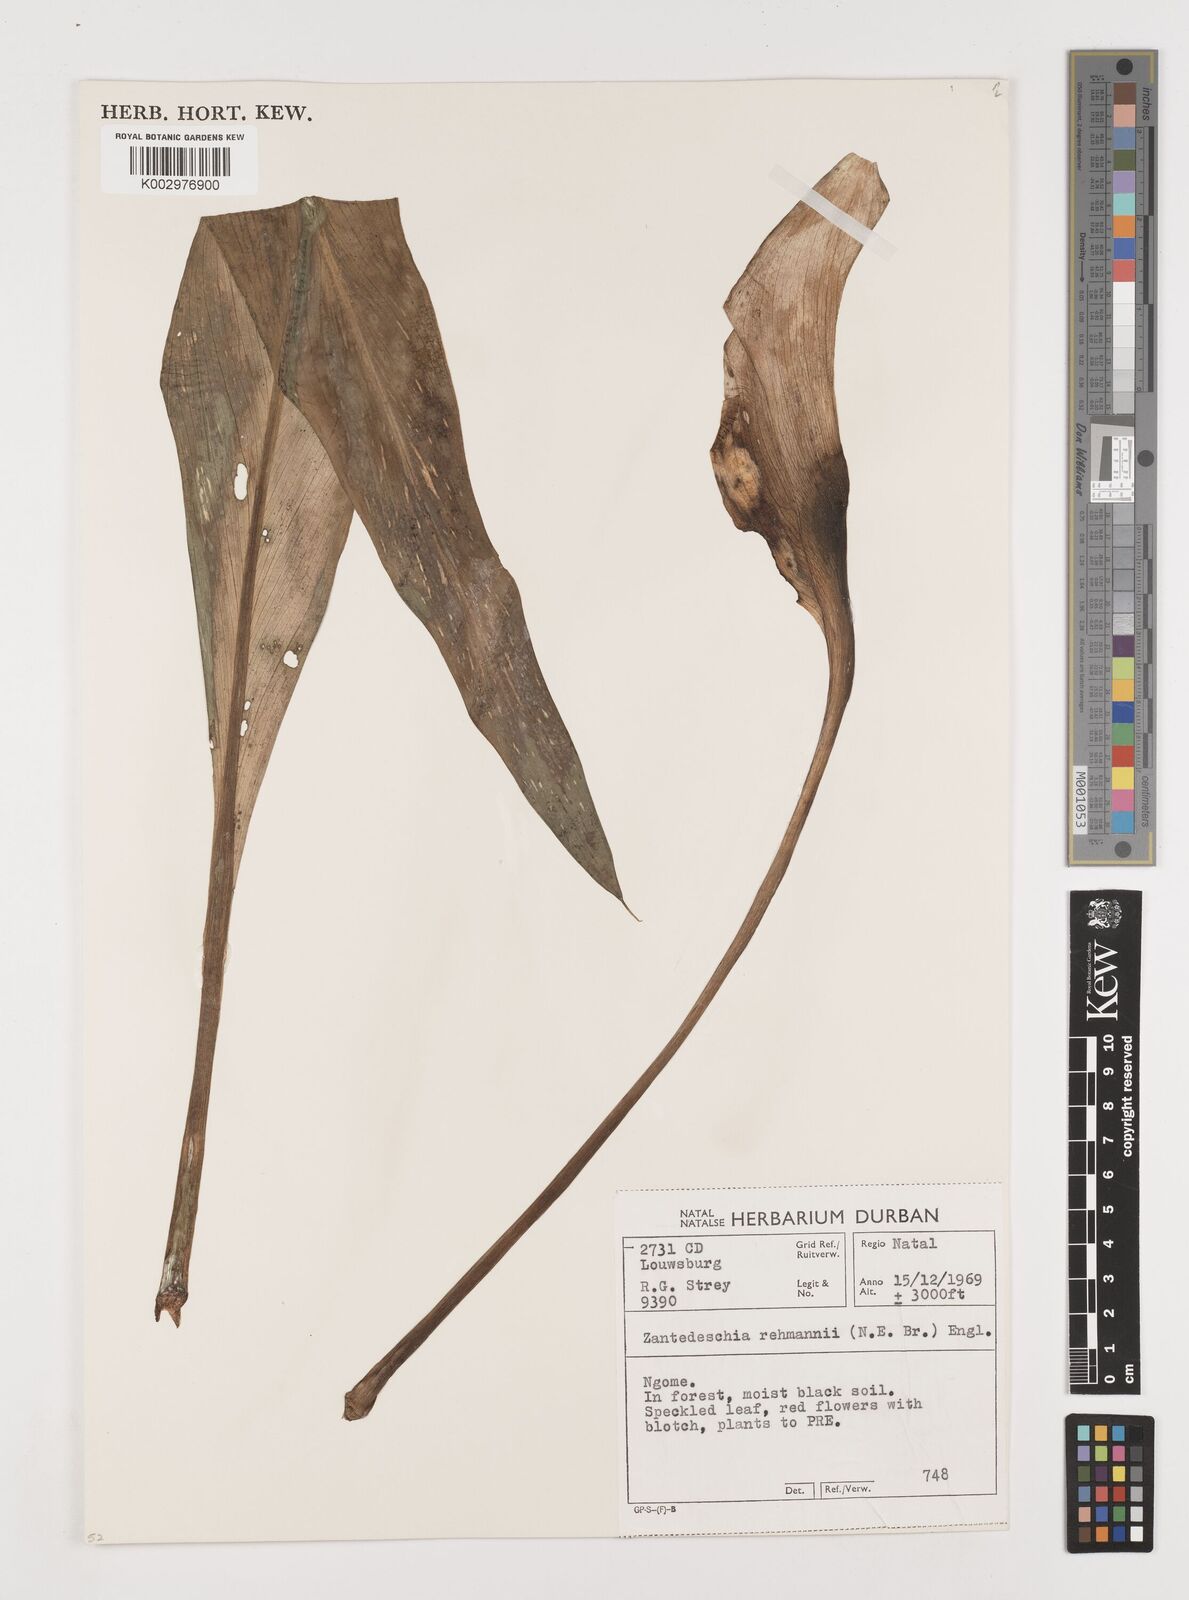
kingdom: Plantae
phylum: Tracheophyta
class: Liliopsida
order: Alismatales
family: Araceae
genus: Zantedeschia
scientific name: Zantedeschia rehmannii
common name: Red calla
